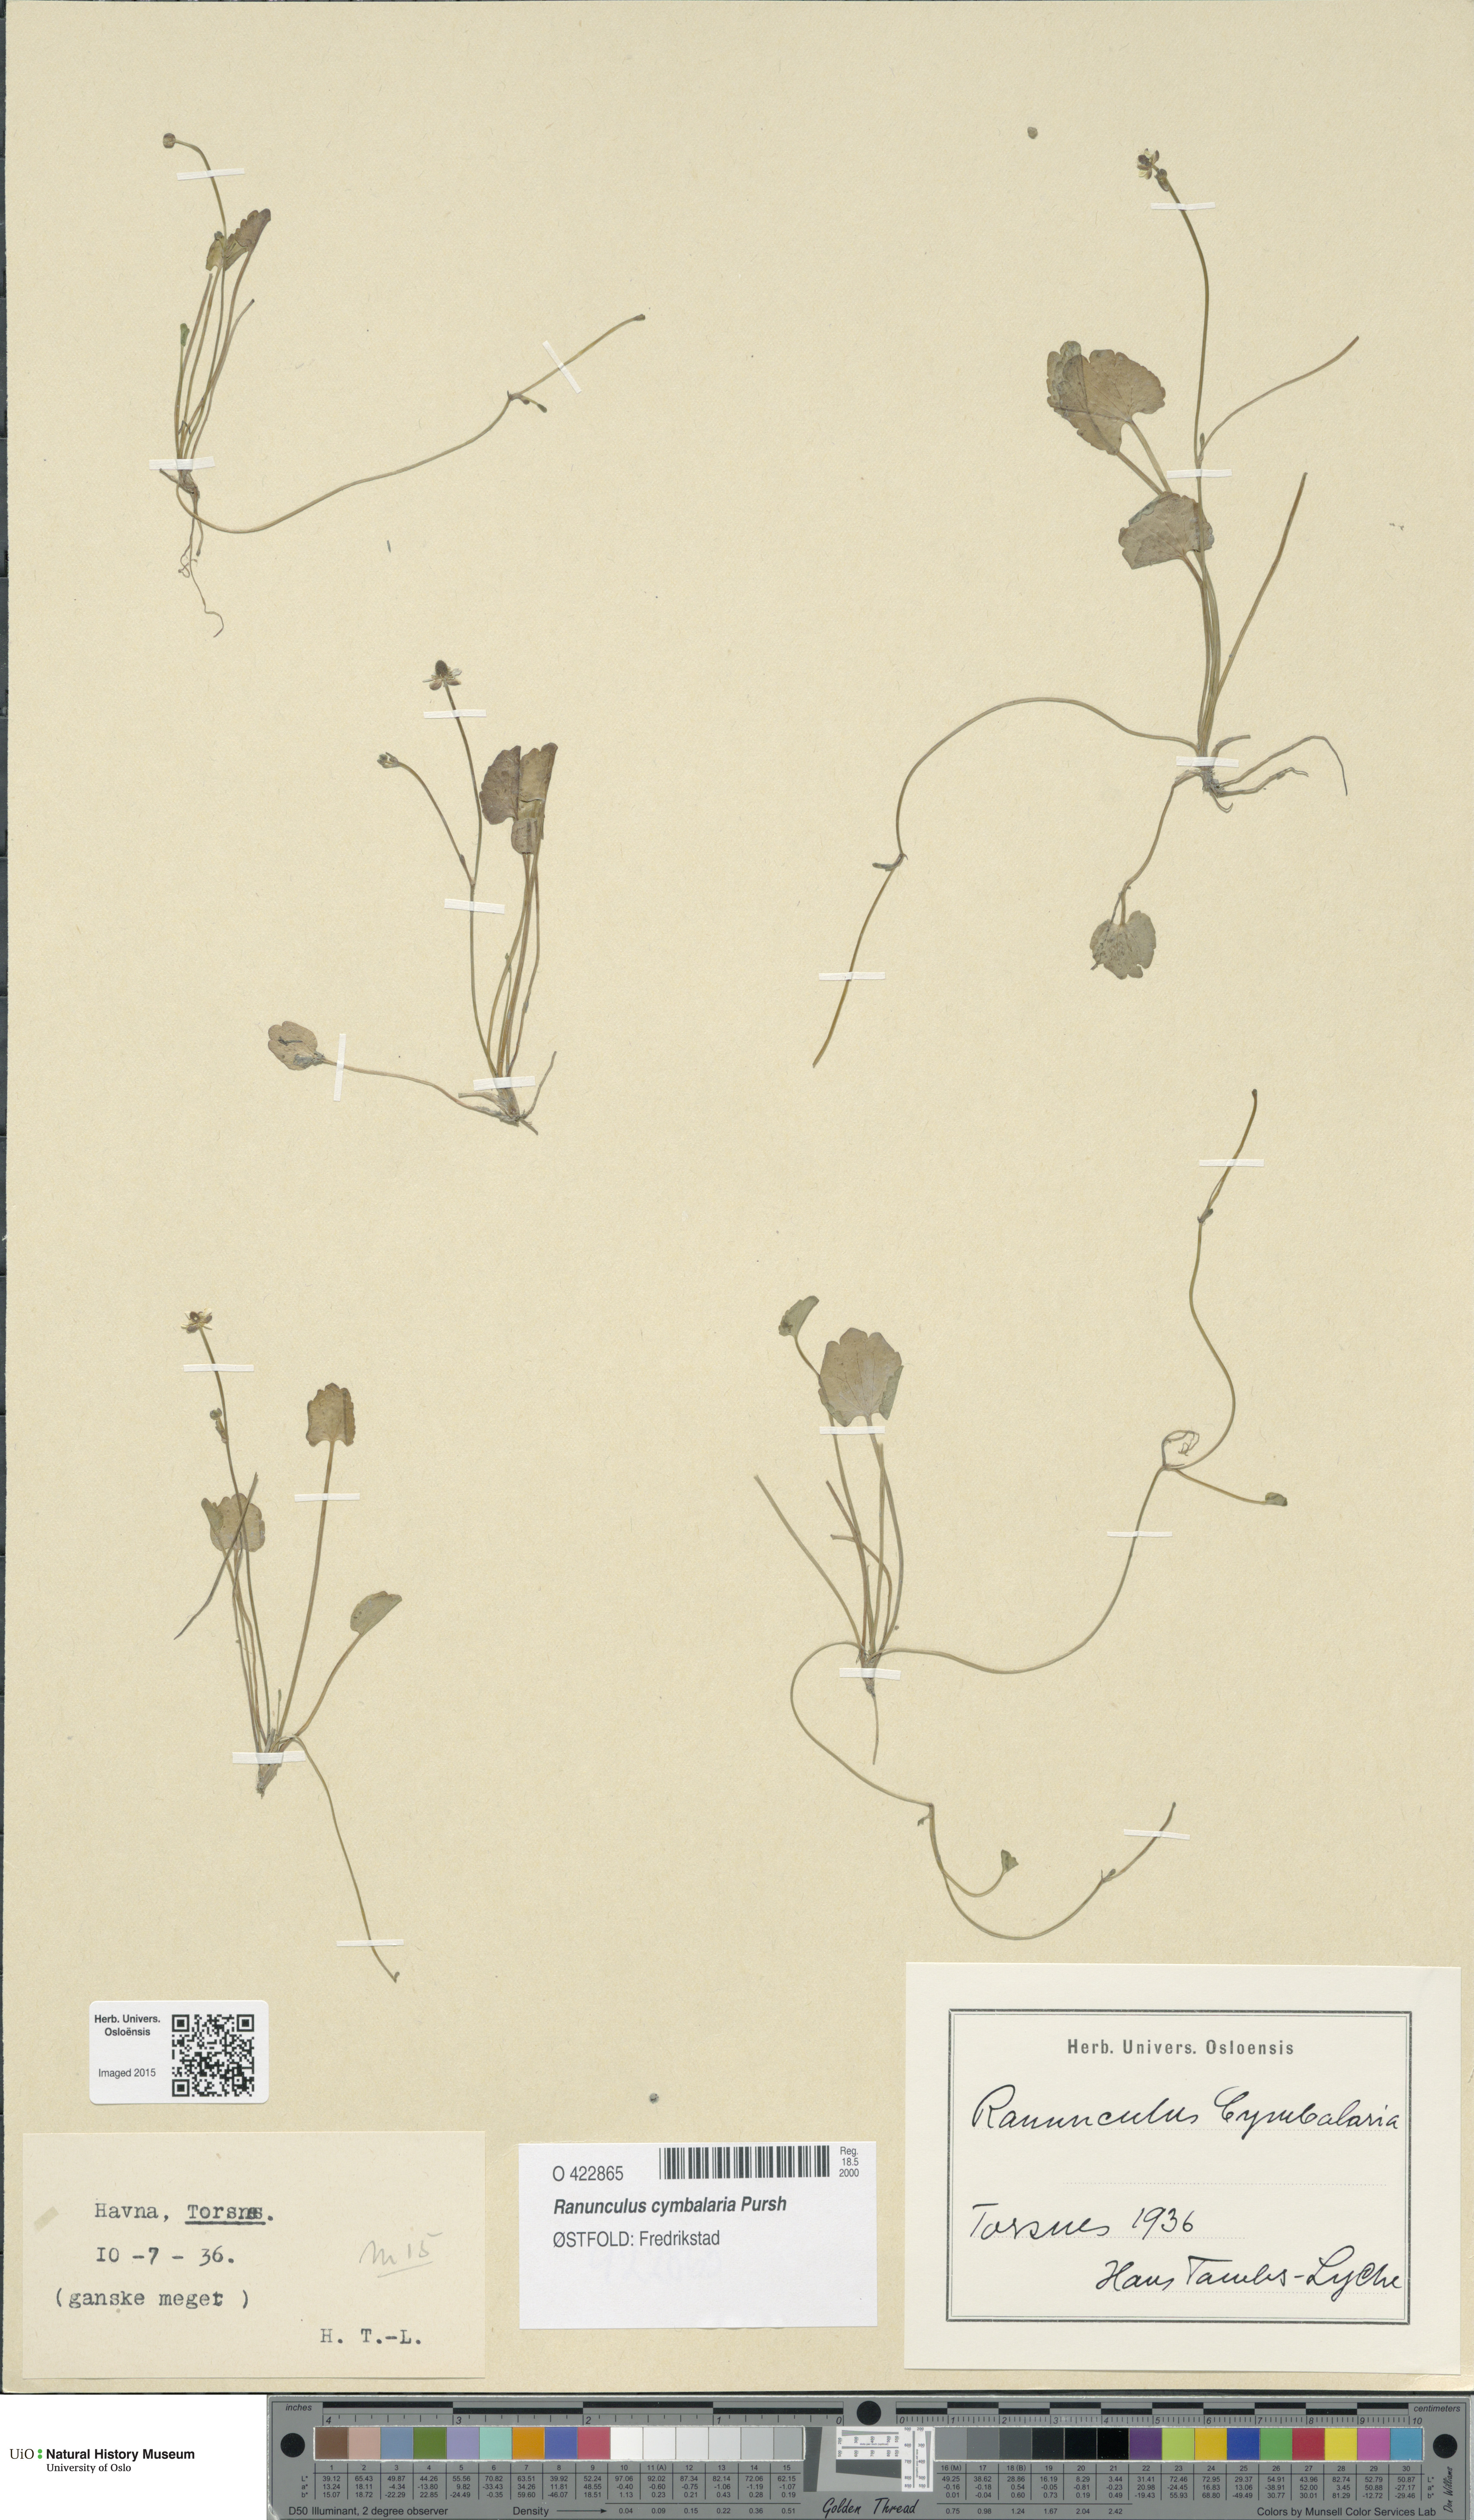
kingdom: Plantae
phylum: Tracheophyta
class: Magnoliopsida
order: Ranunculales
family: Ranunculaceae
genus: Halerpestes
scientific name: Halerpestes cymbalaria
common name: Seaside crowfoot
